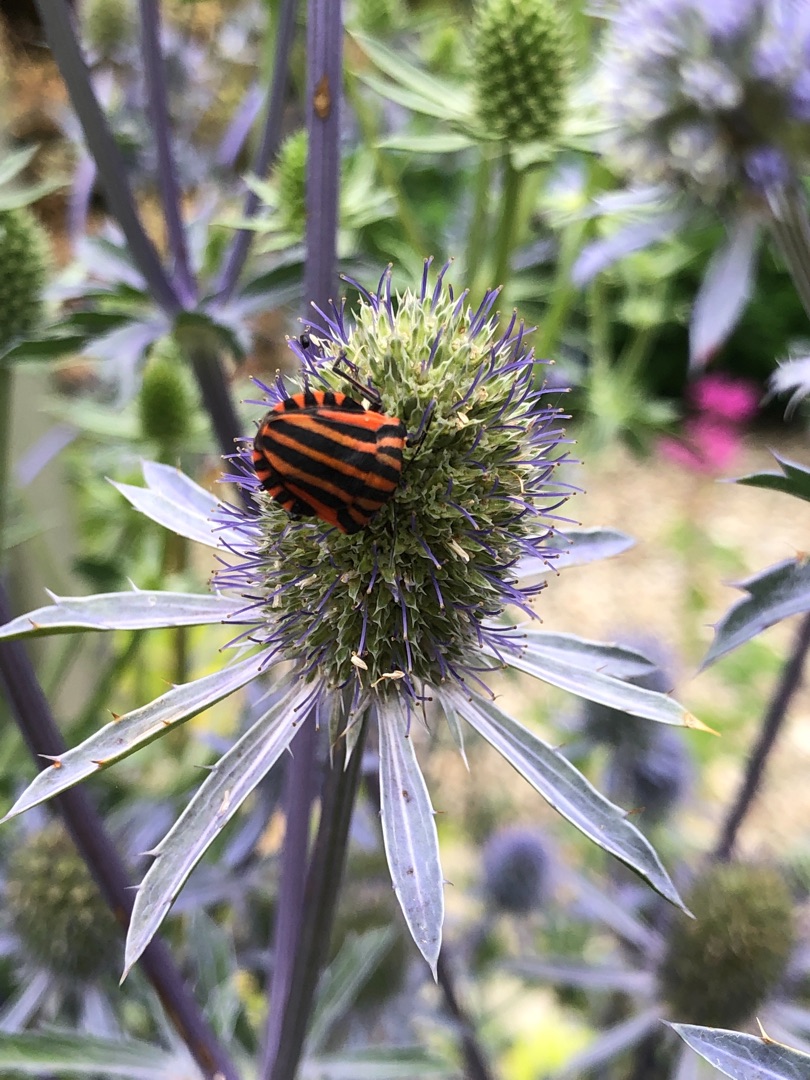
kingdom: Animalia
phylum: Arthropoda
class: Insecta
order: Hemiptera
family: Pentatomidae
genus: Graphosoma
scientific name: Graphosoma italicum
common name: Stribetæge
